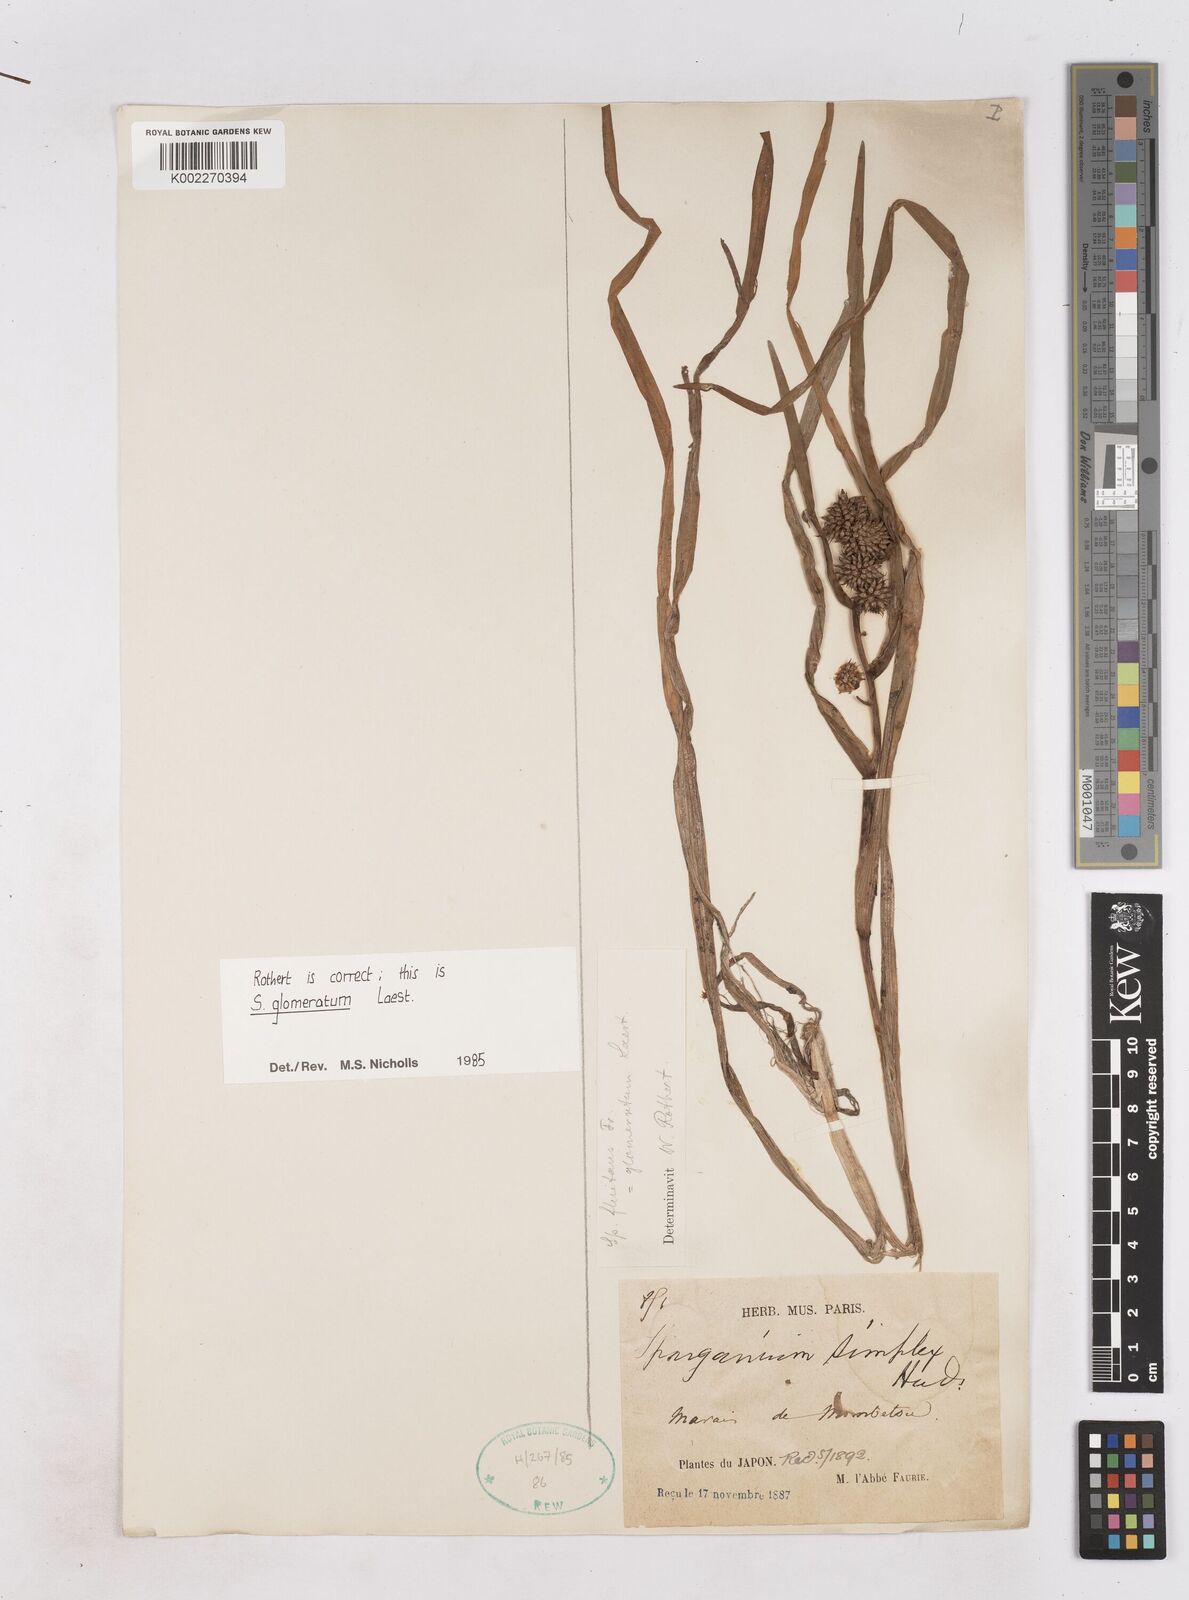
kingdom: Plantae
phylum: Tracheophyta
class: Liliopsida
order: Poales
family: Typhaceae
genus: Sparganium
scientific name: Sparganium glomeratum
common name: Clustered burreed
